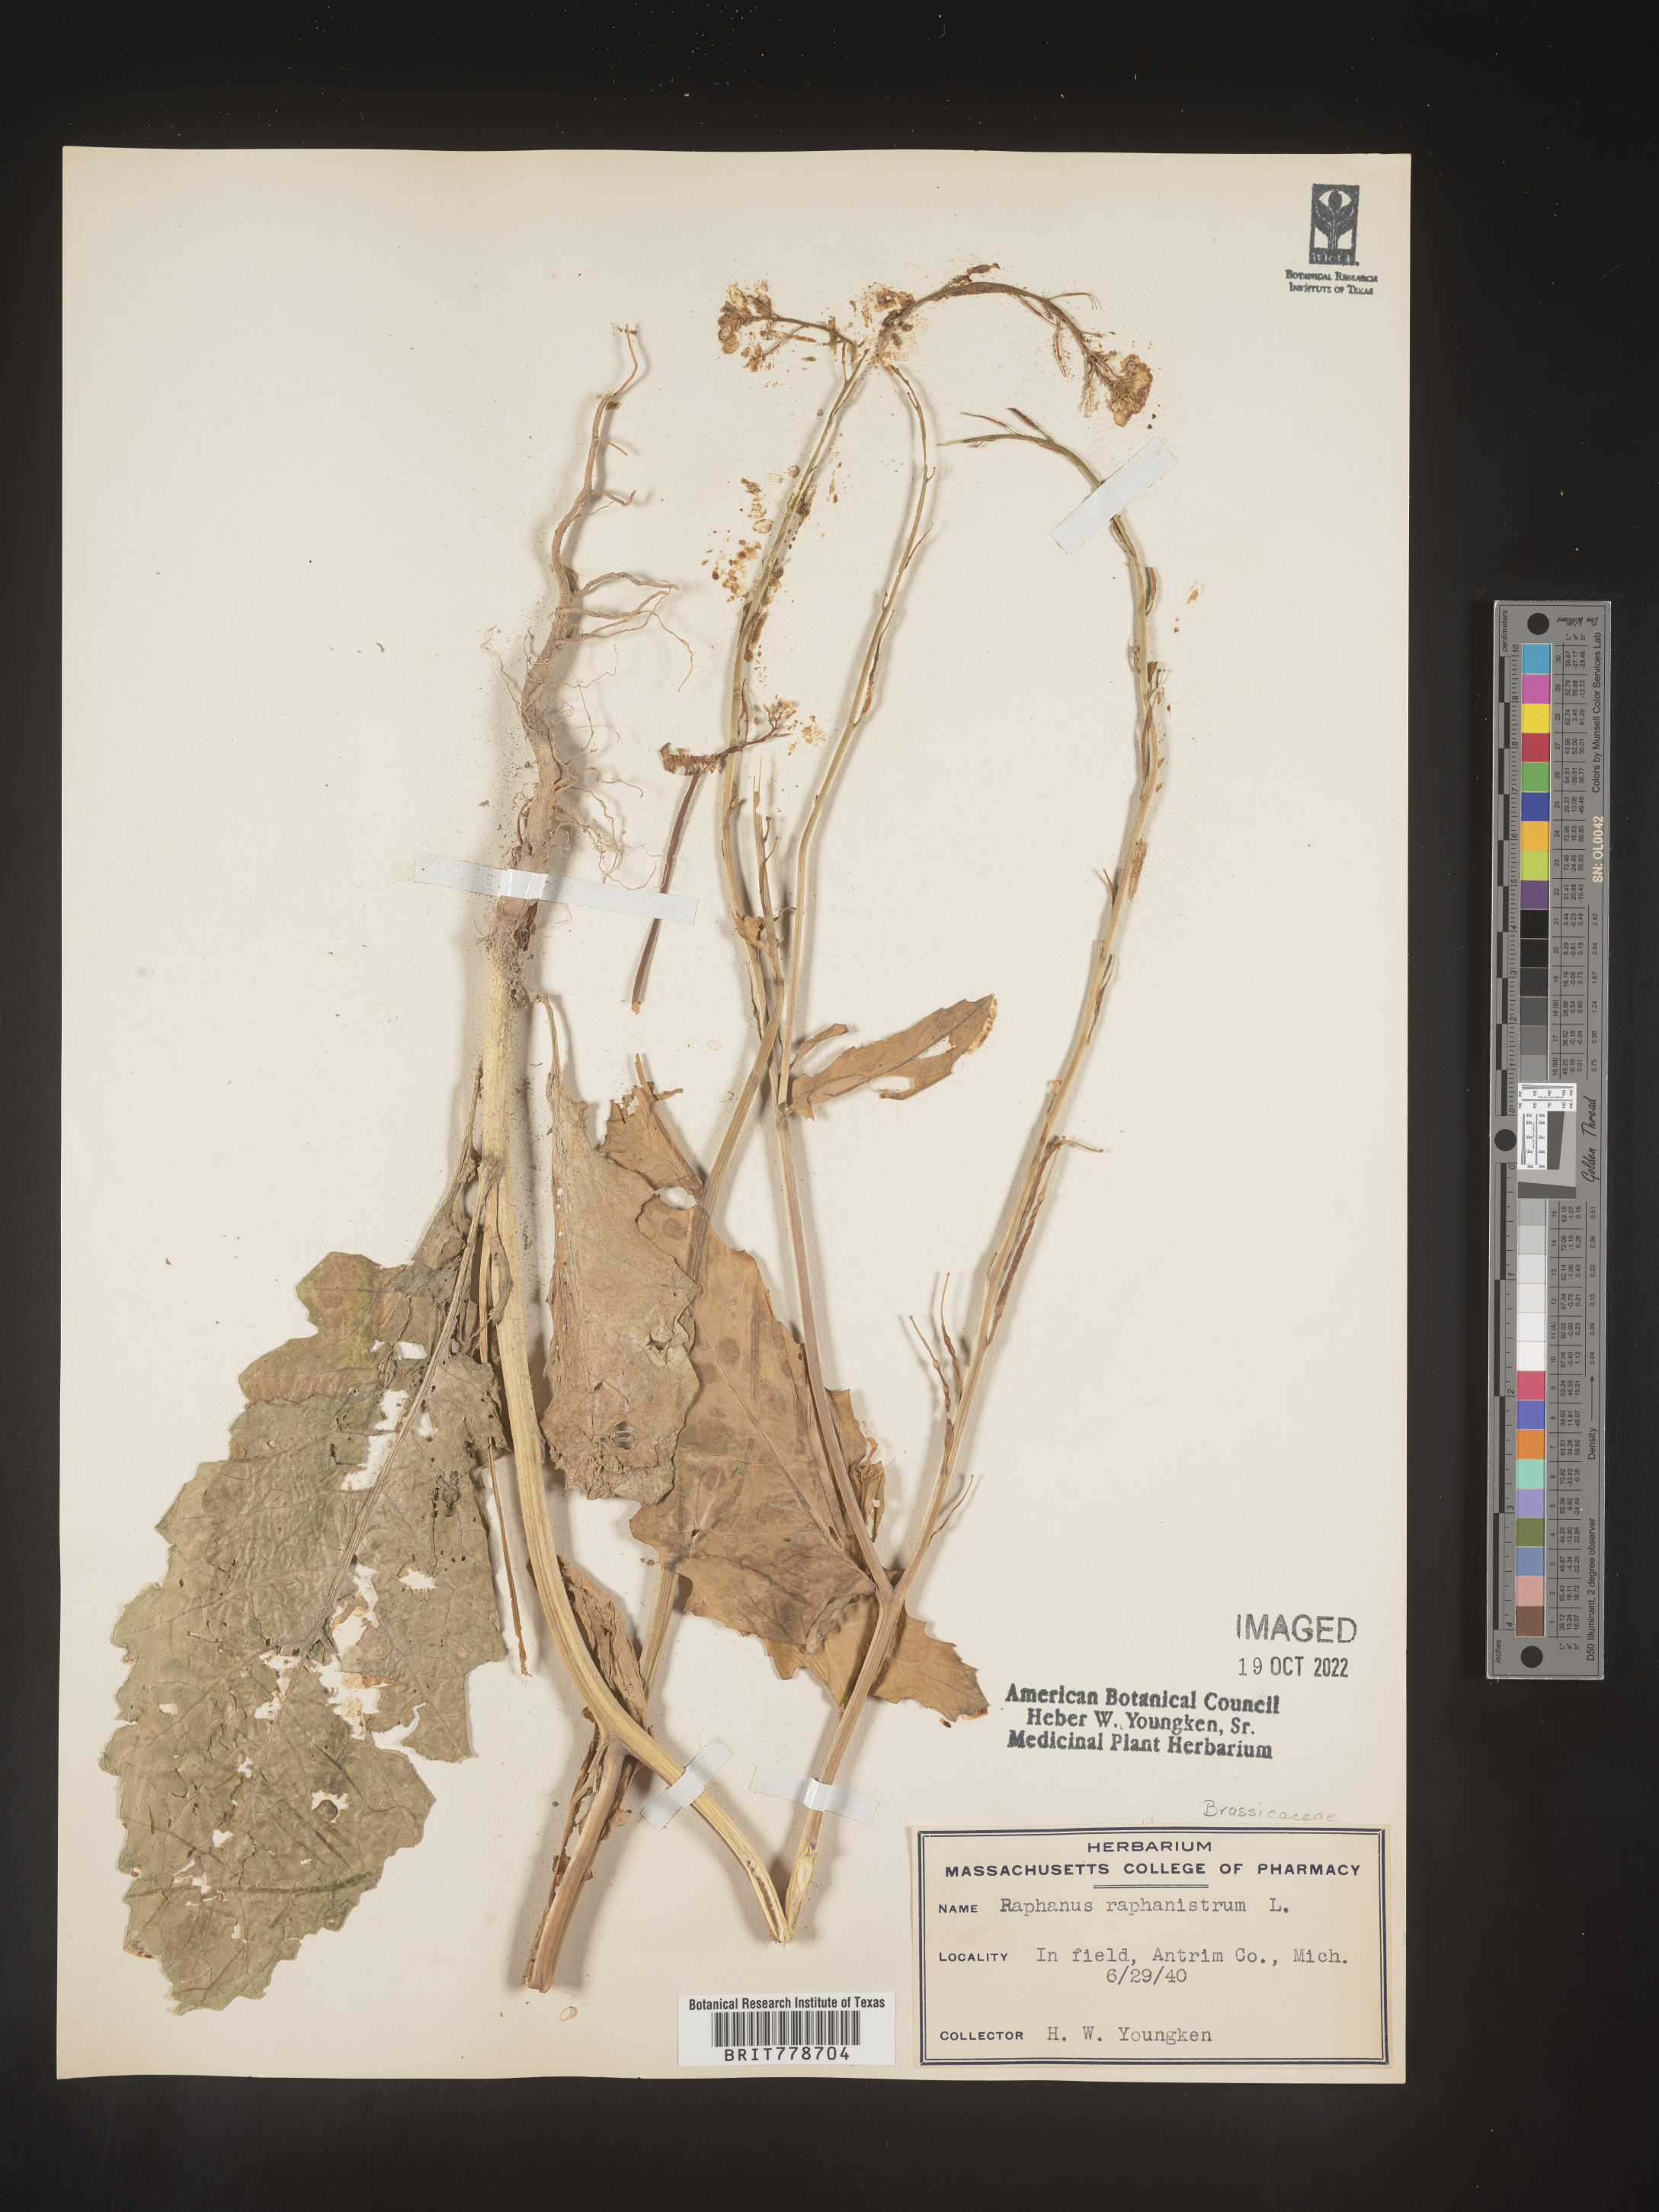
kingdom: Plantae
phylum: Tracheophyta
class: Magnoliopsida
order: Brassicales
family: Brassicaceae
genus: Raphanus
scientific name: Raphanus raphanistrum
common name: Wild radish
